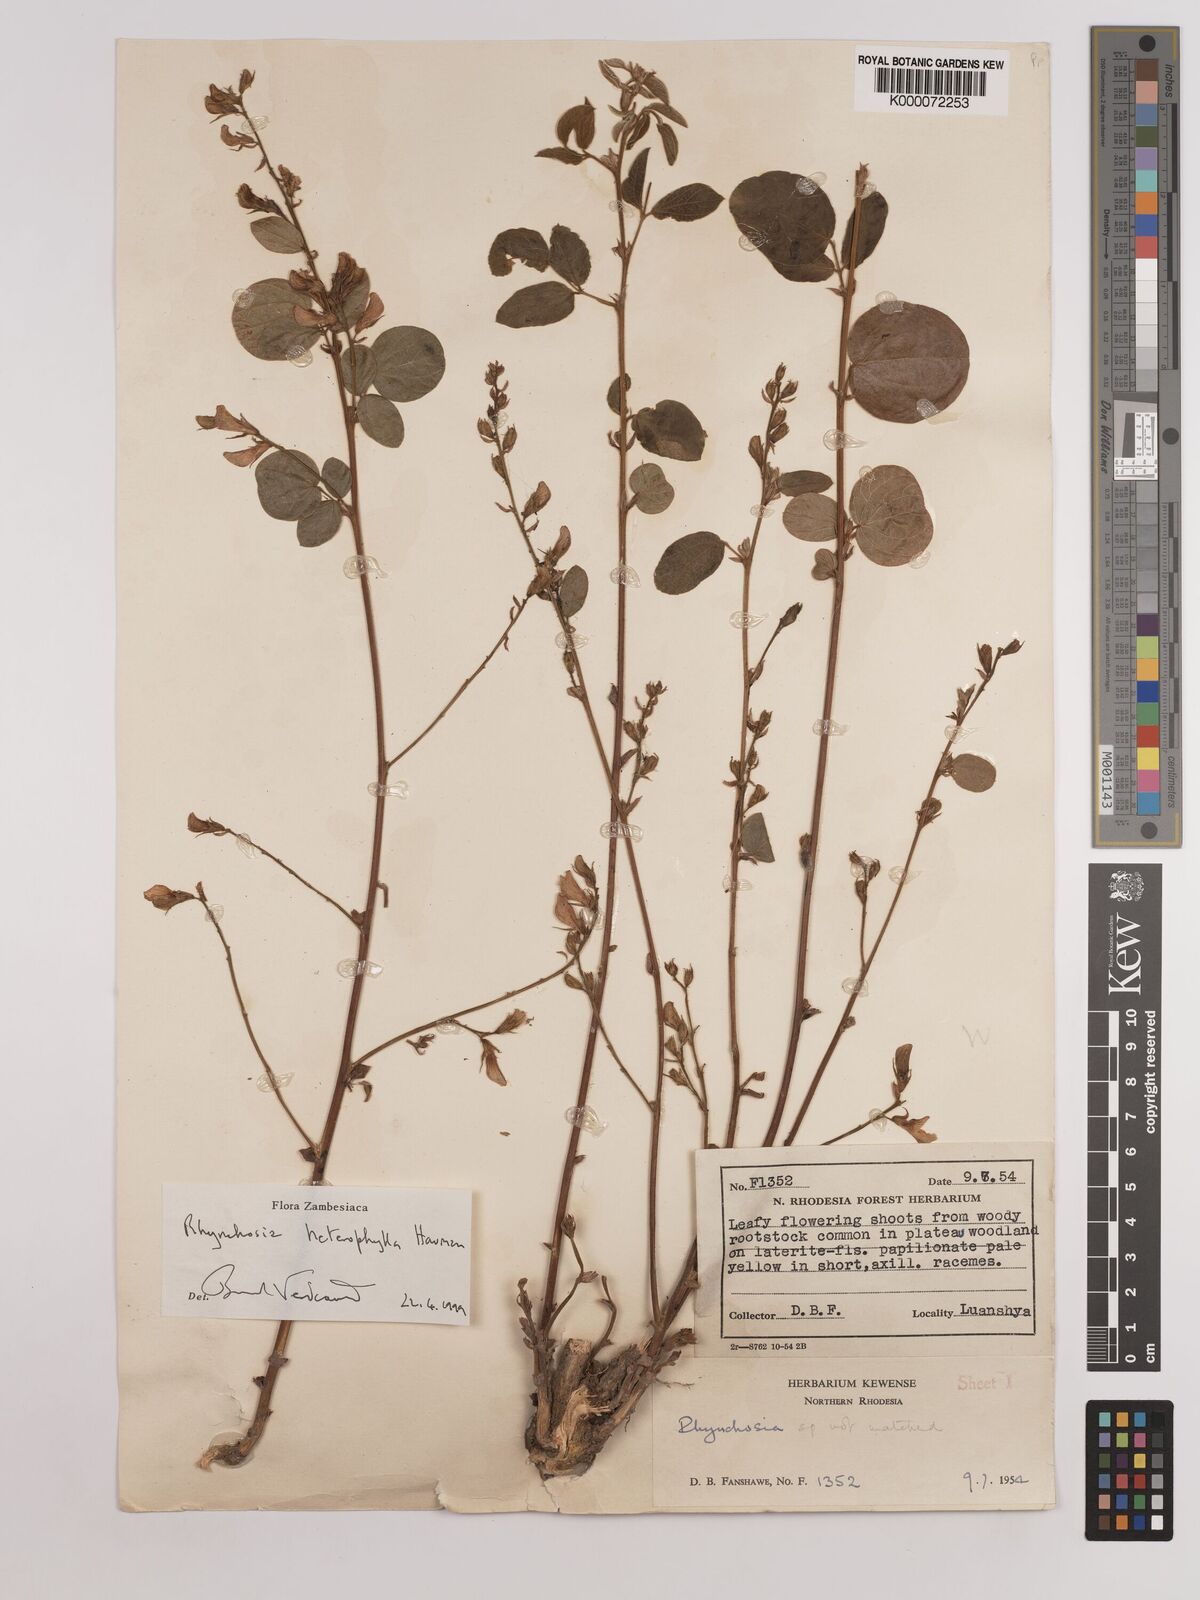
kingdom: Plantae
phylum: Tracheophyta
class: Magnoliopsida
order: Fabales
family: Fabaceae
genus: Rhynchosia
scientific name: Rhynchosia heterophylla
